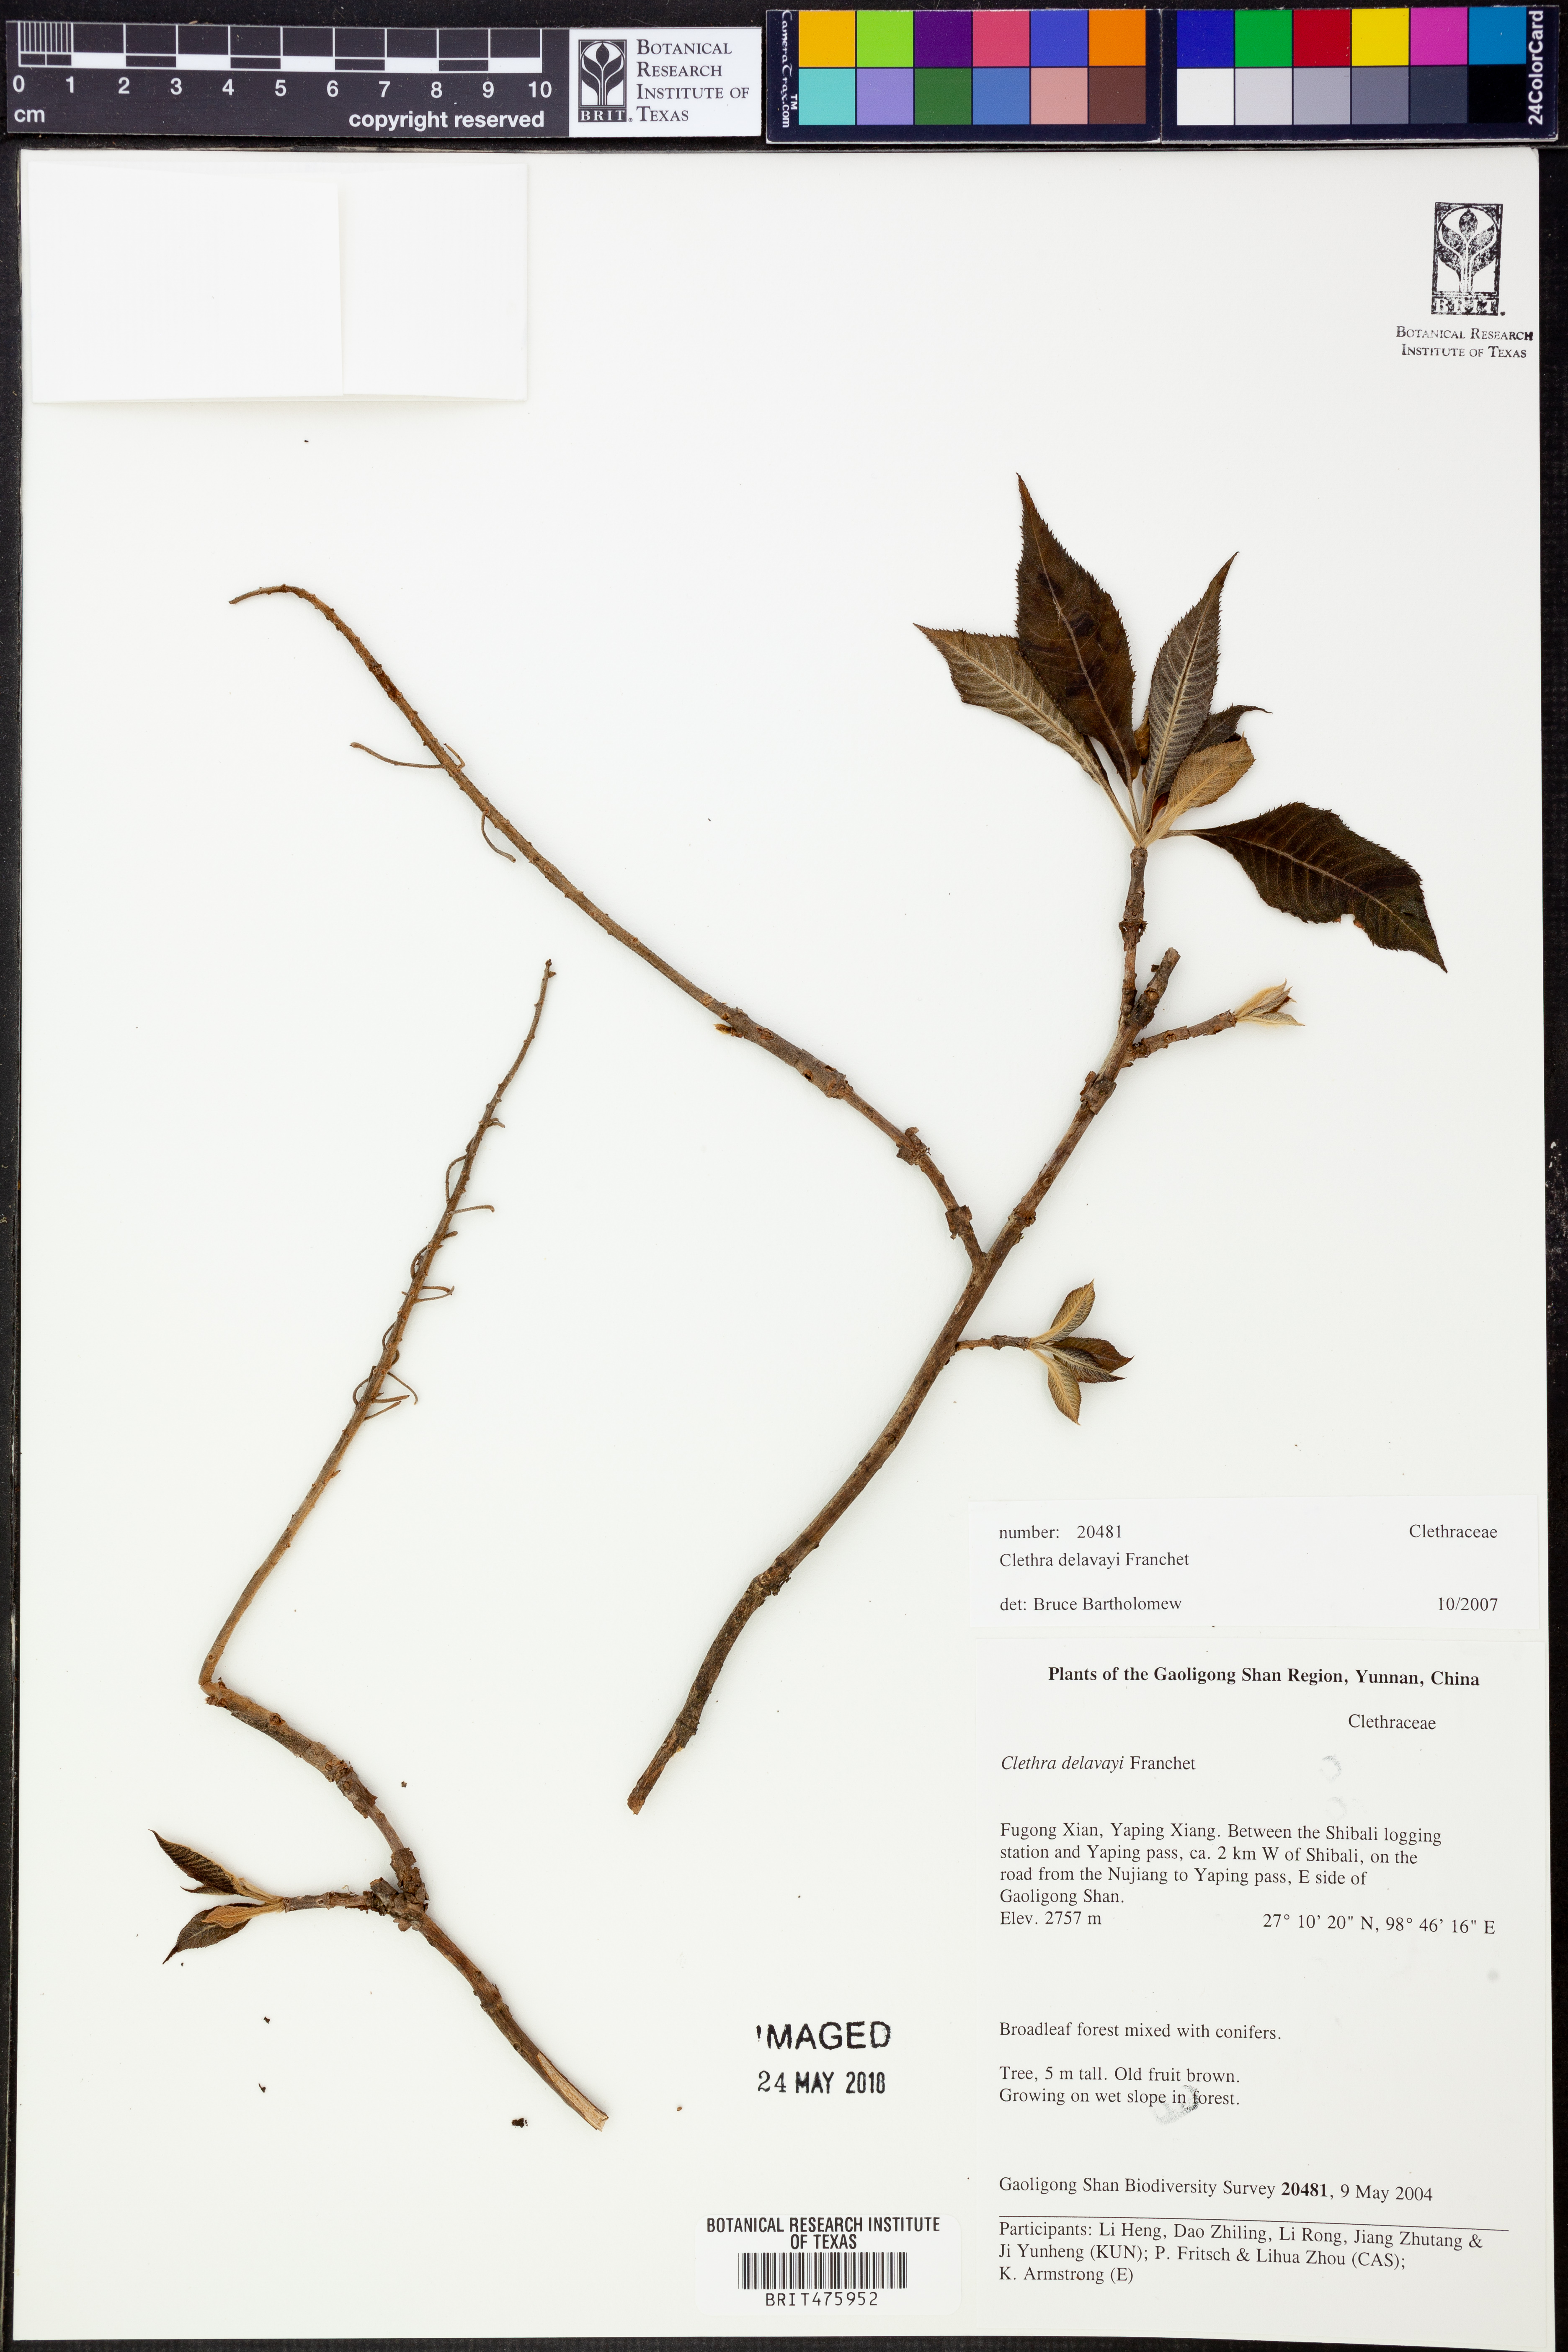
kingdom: Plantae
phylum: Tracheophyta
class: Magnoliopsida
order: Ericales
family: Clethraceae
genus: Clethra
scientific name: Clethra delavayi
